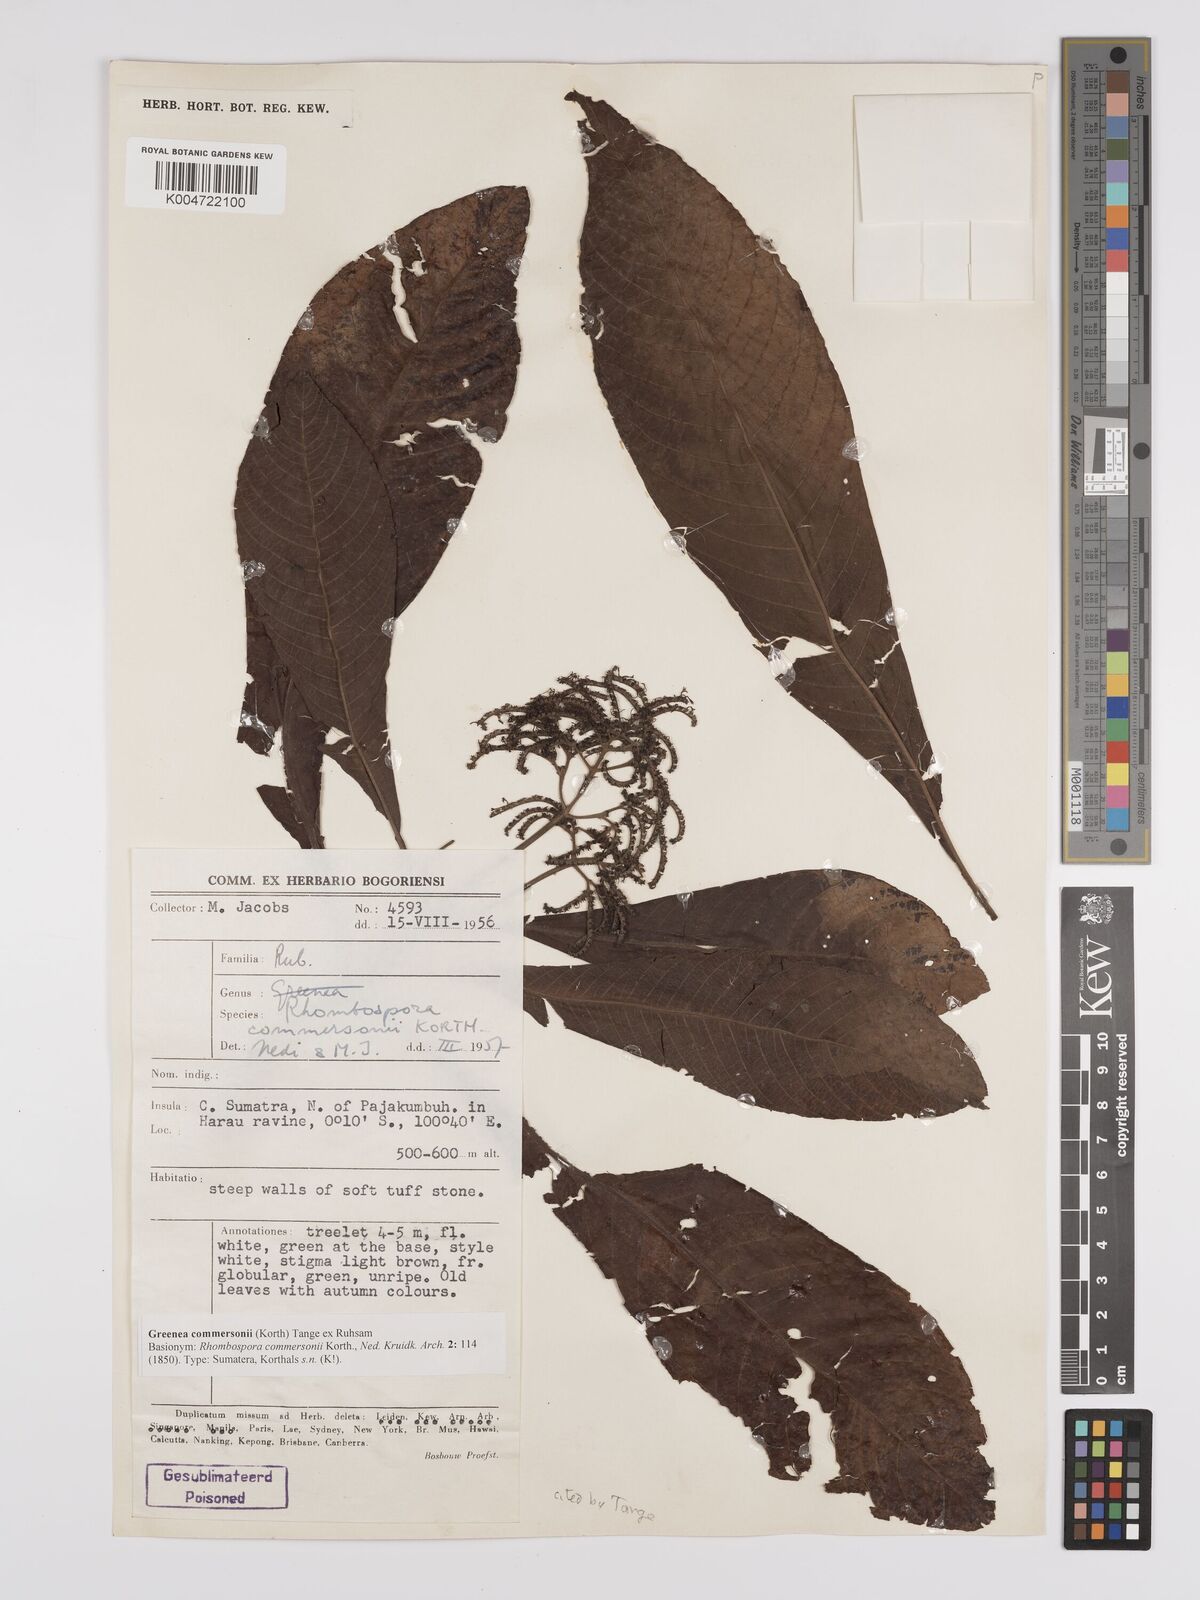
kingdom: Plantae
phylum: Tracheophyta
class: Magnoliopsida
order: Gentianales
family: Rubiaceae
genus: Greenea
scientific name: Greenea commersonii
